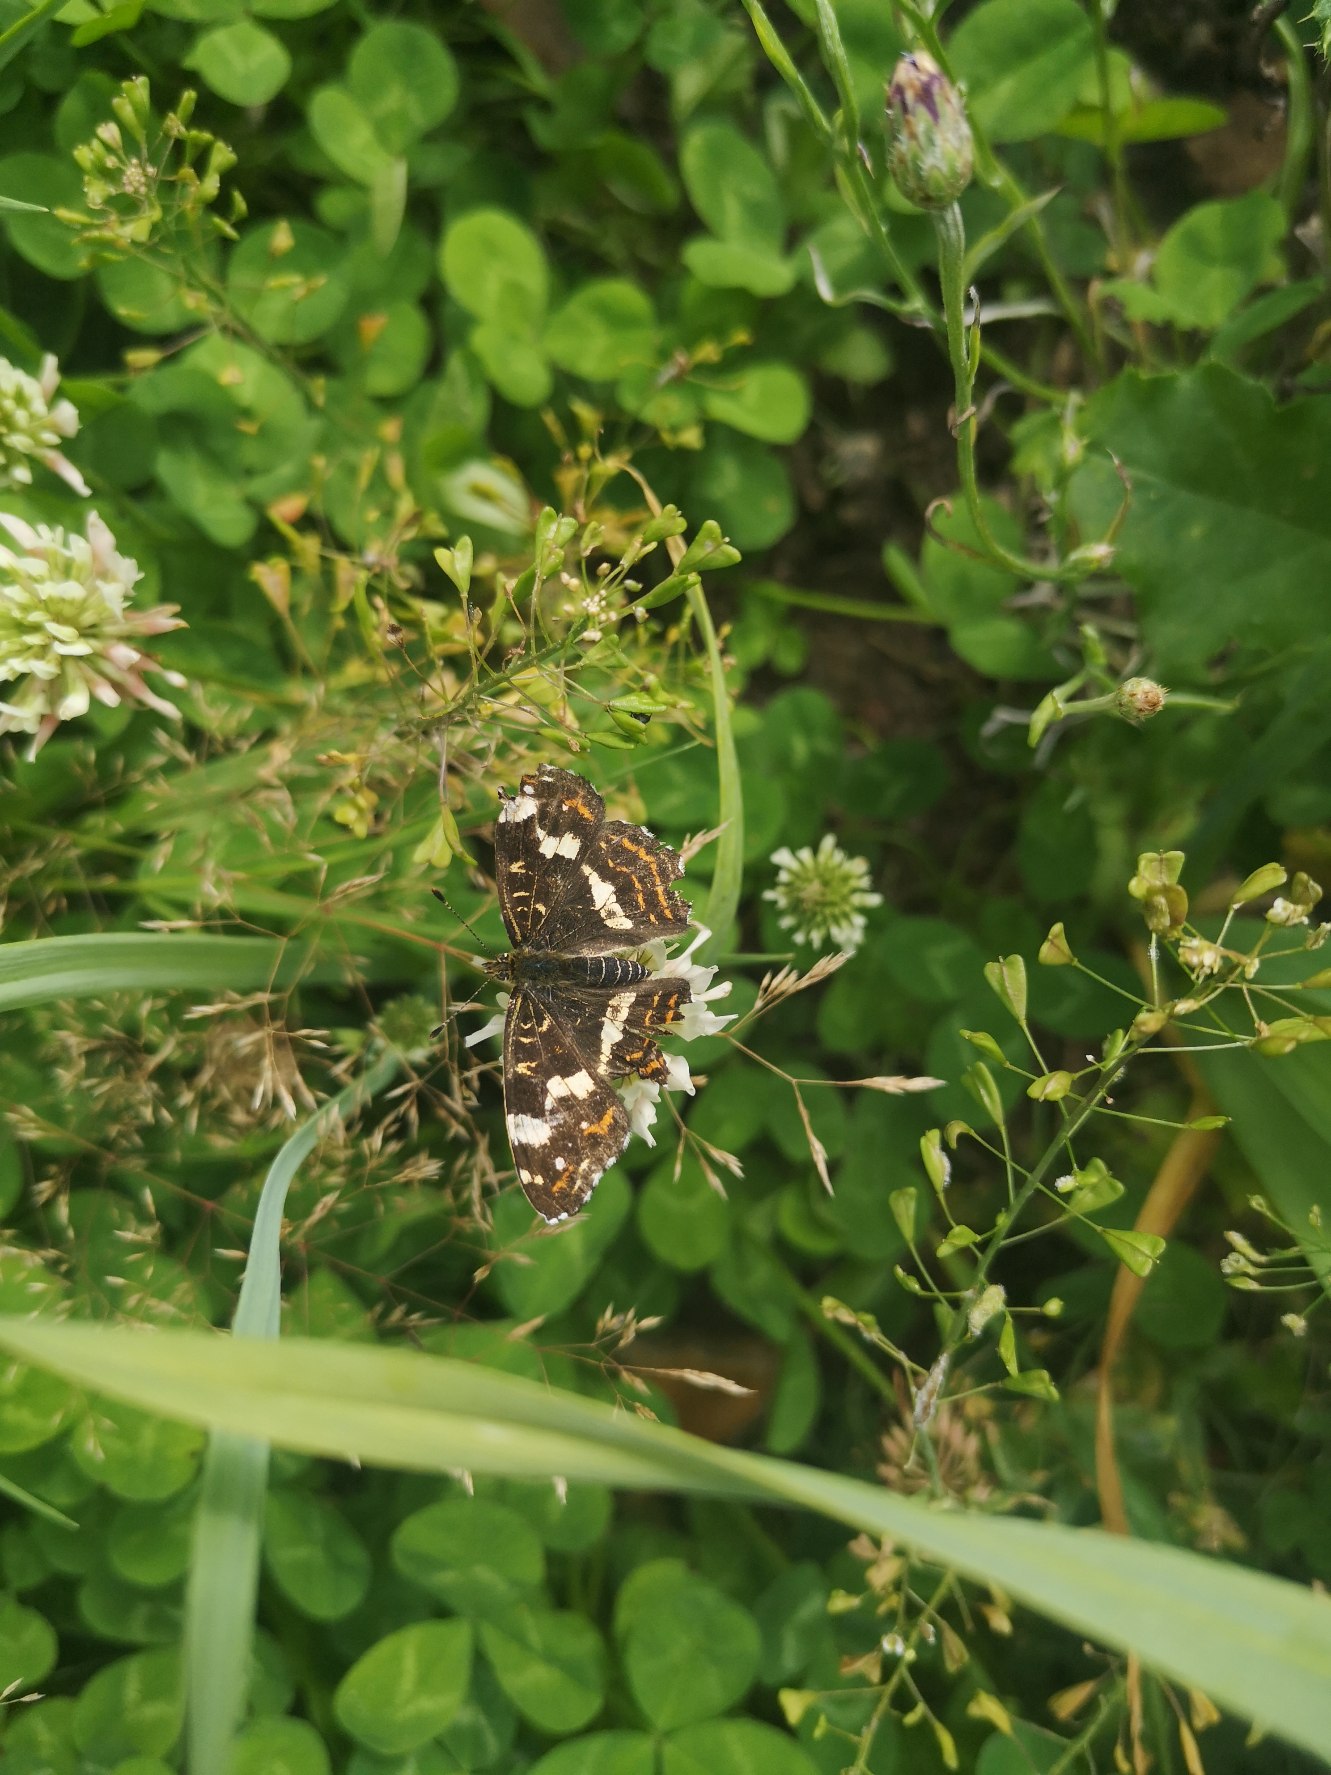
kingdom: Animalia
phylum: Arthropoda
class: Insecta
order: Lepidoptera
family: Nymphalidae
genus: Araschnia
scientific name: Araschnia levana
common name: Nældesommerfugl
